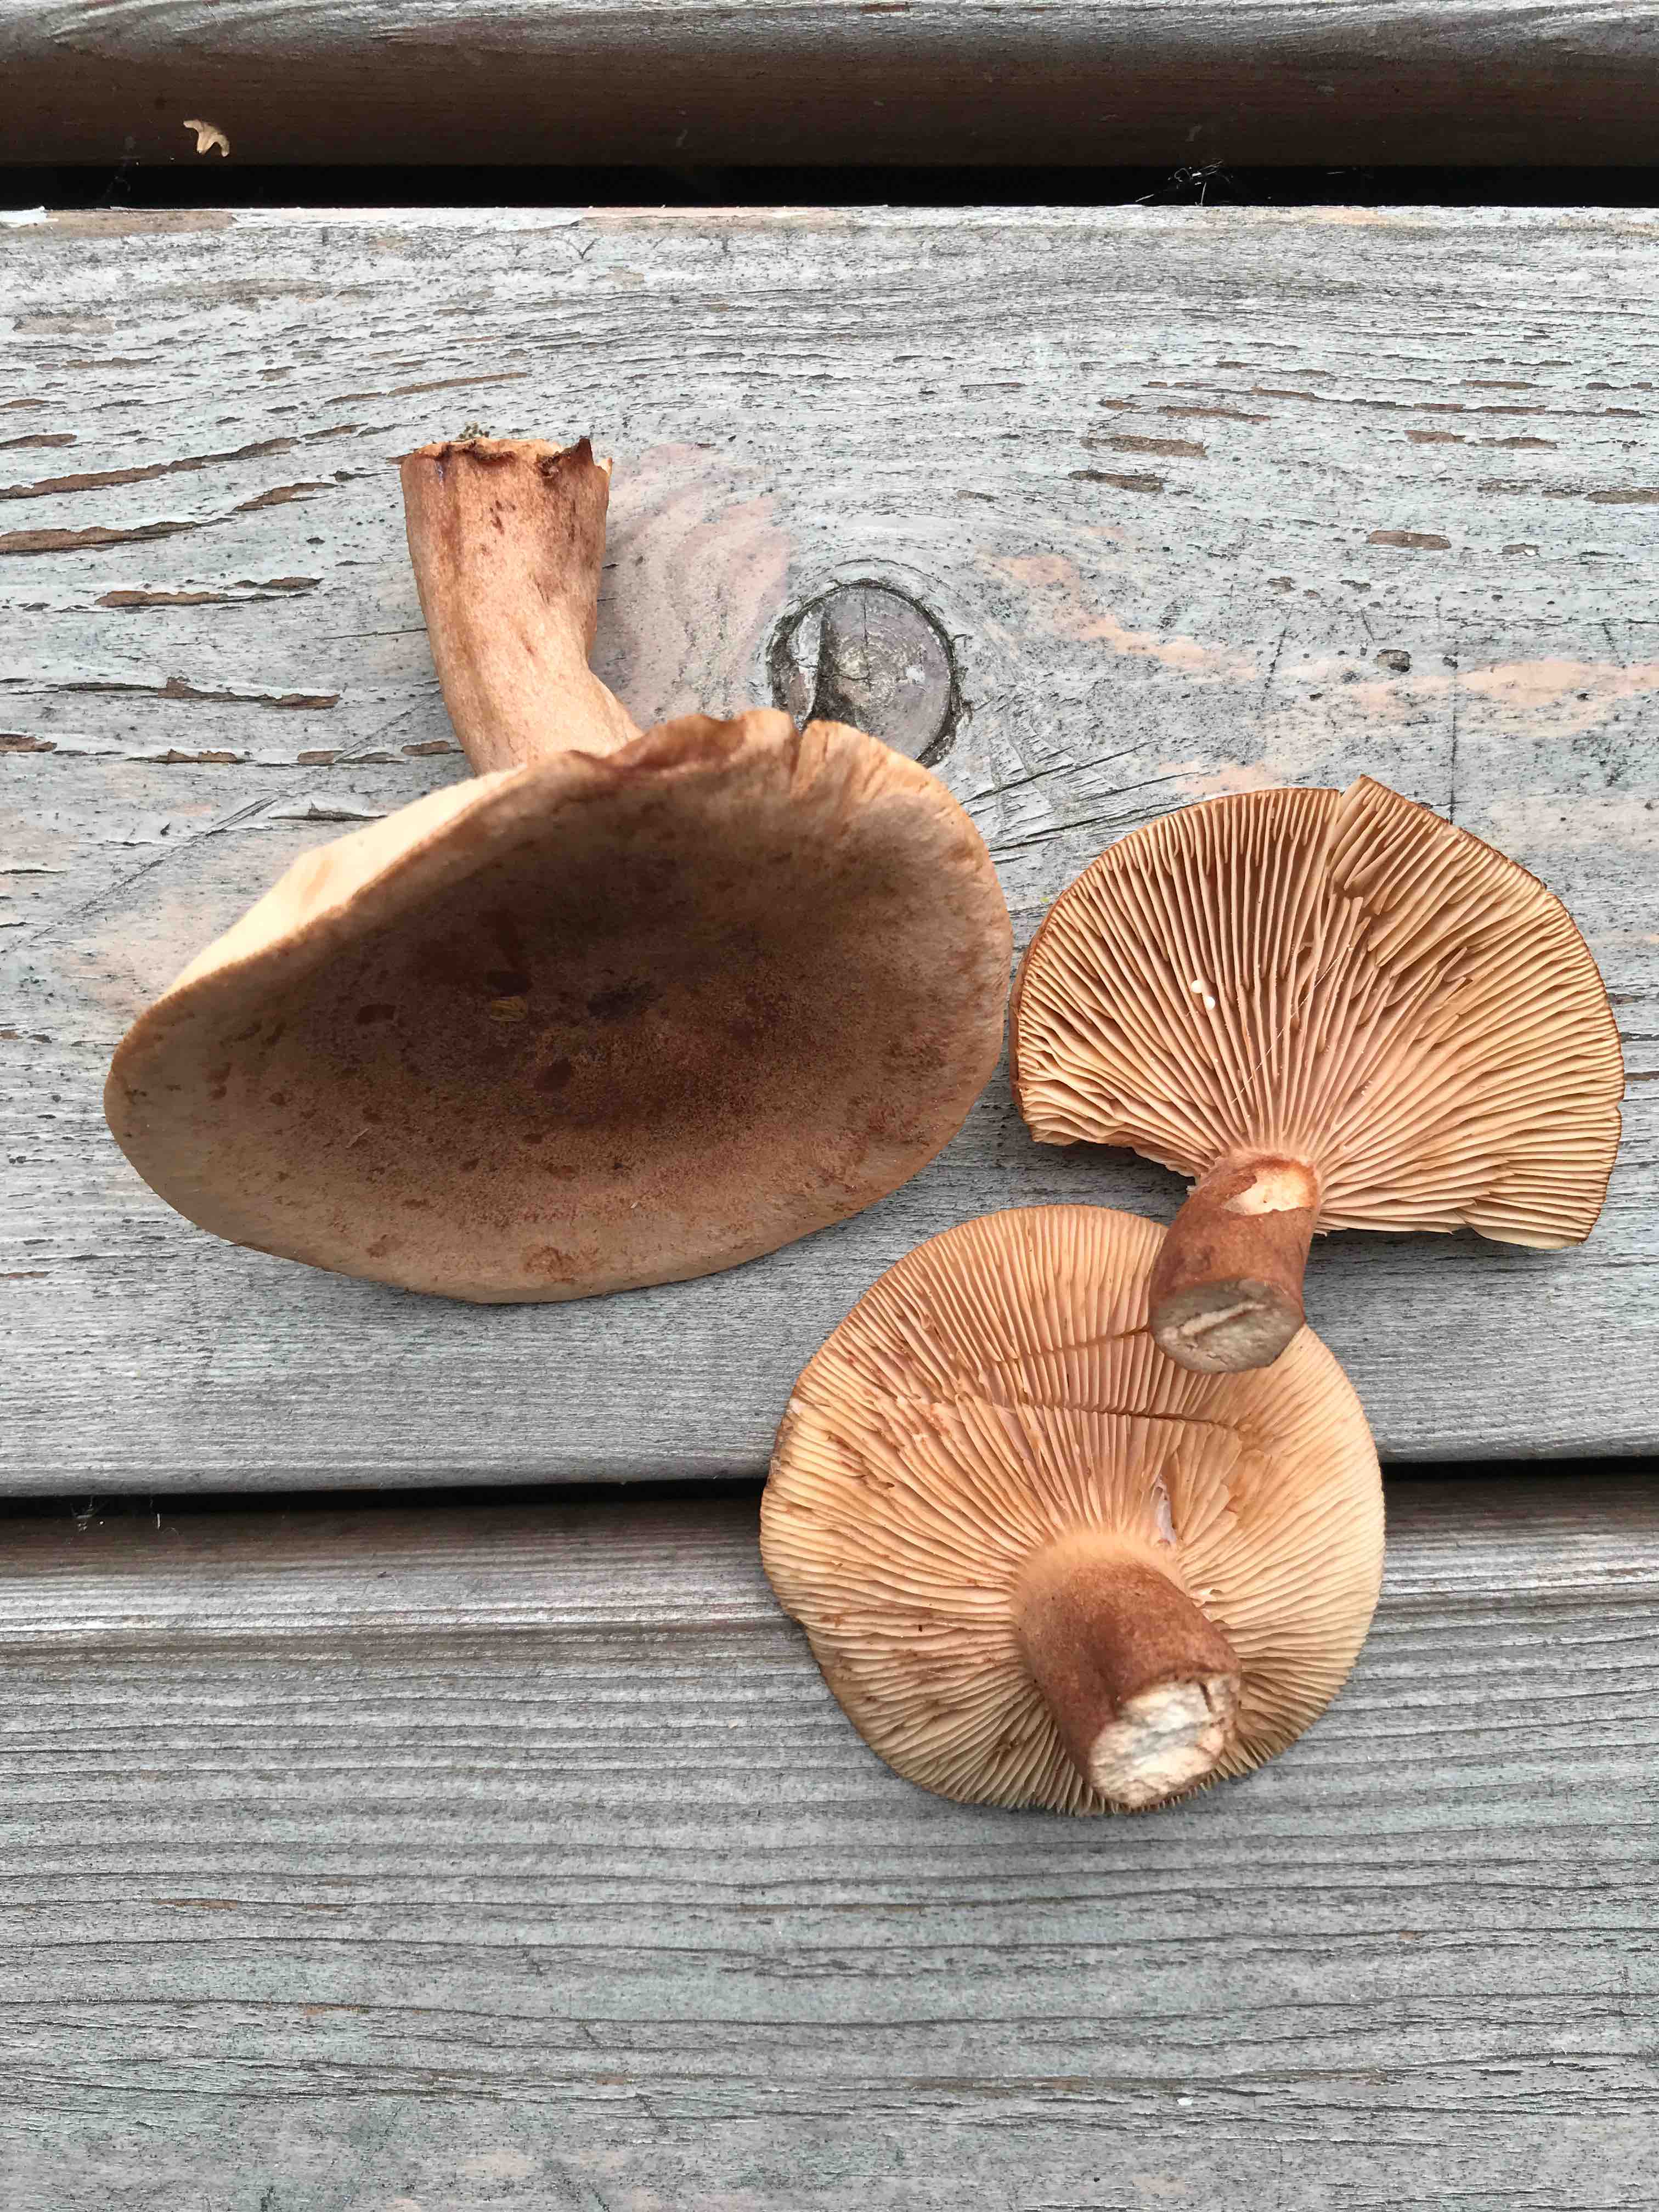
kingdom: Fungi
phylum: Basidiomycota
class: Agaricomycetes
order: Russulales
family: Russulaceae
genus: Lactarius
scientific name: Lactarius quietus
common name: ege-mælkehat
